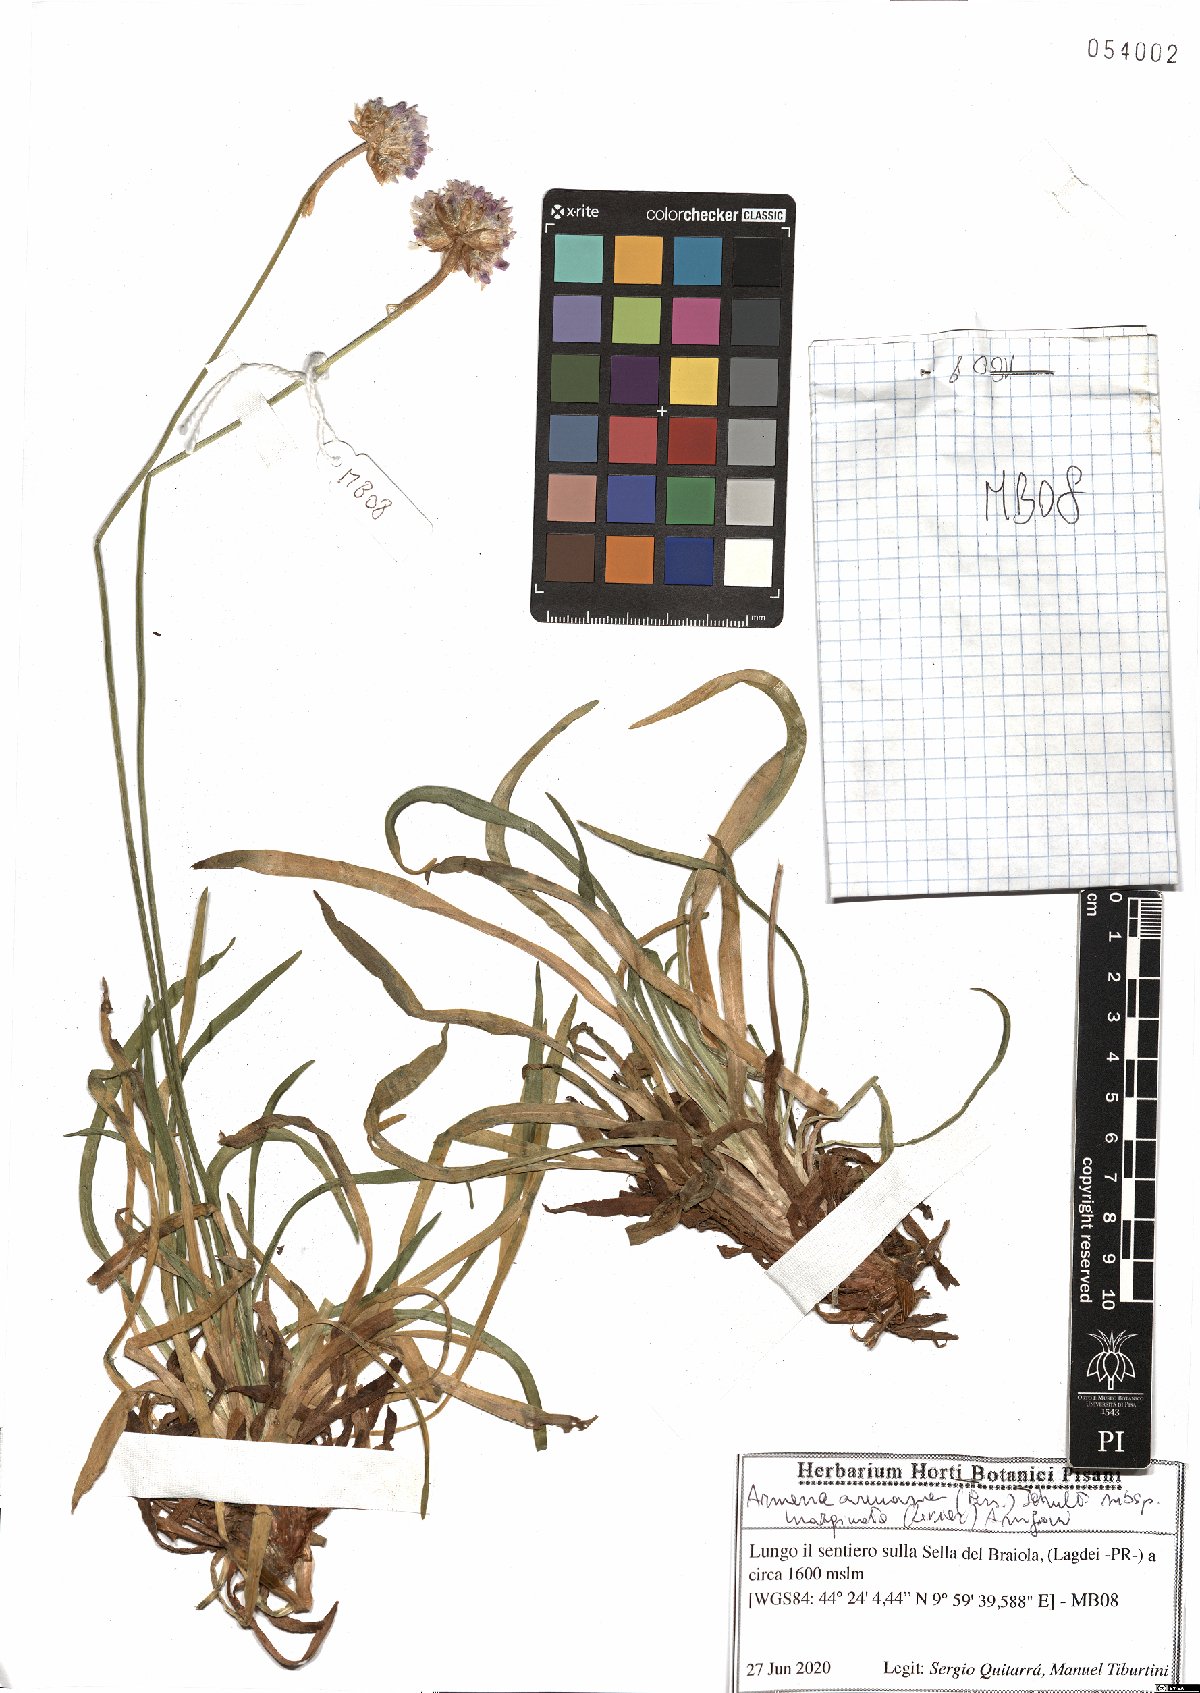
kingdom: Plantae
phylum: Tracheophyta
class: Magnoliopsida
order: Caryophyllales
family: Plumbaginaceae
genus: Armeria
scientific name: Armeria arenaria
